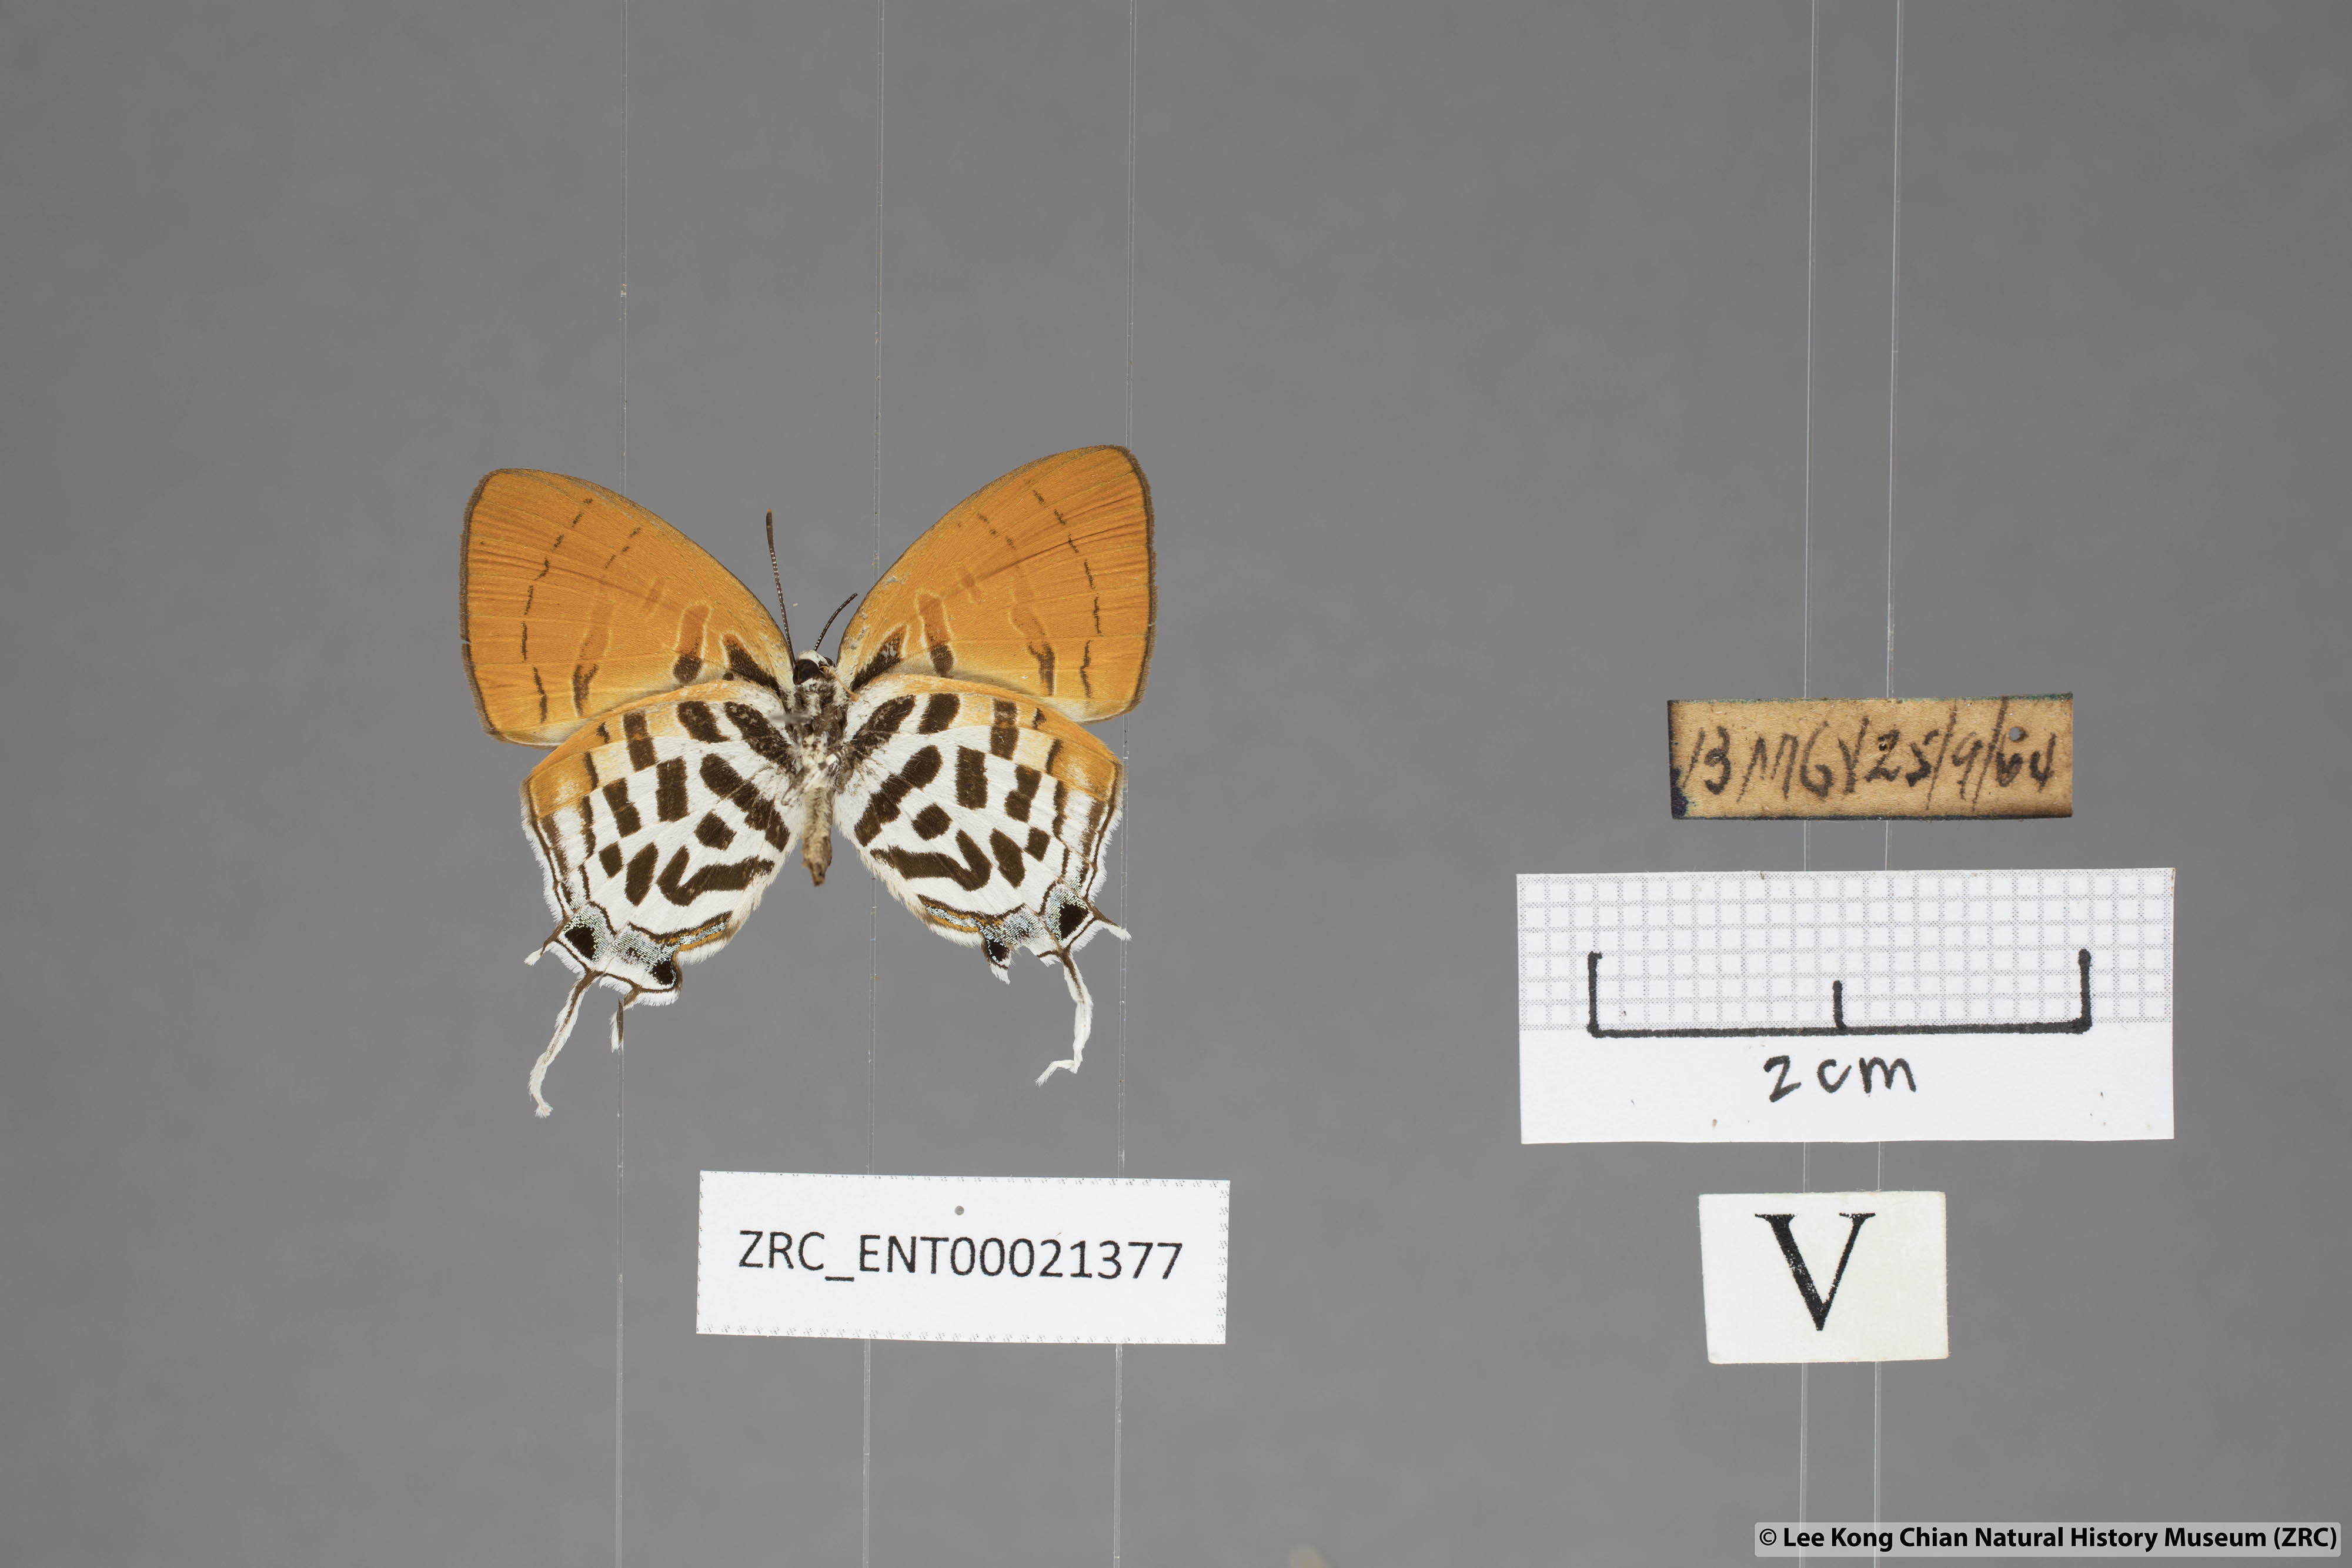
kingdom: Animalia
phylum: Arthropoda
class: Insecta
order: Lepidoptera
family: Lycaenidae
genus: Drupadia
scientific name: Drupadia ravindra
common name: Common posy
